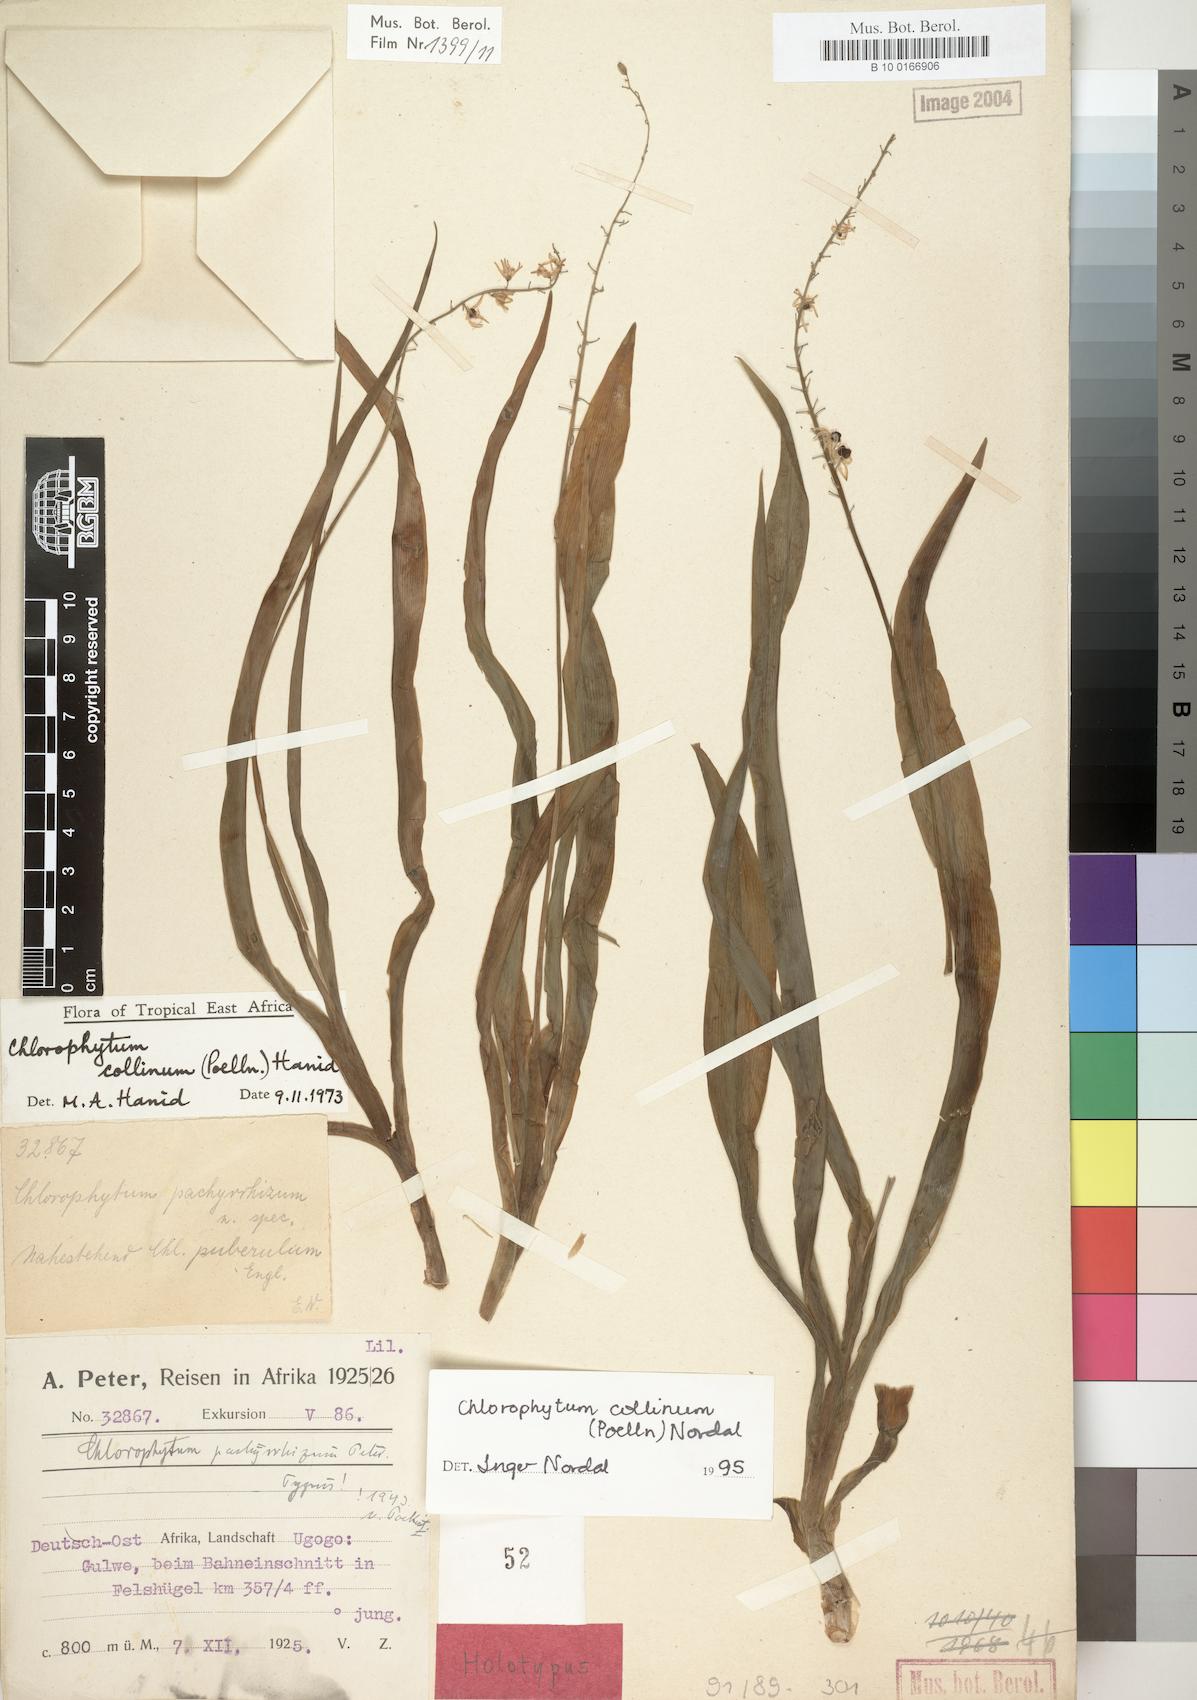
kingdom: Plantae
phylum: Tracheophyta
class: Liliopsida
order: Asparagales
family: Asparagaceae
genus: Chlorophytum
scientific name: Chlorophytum collinum
